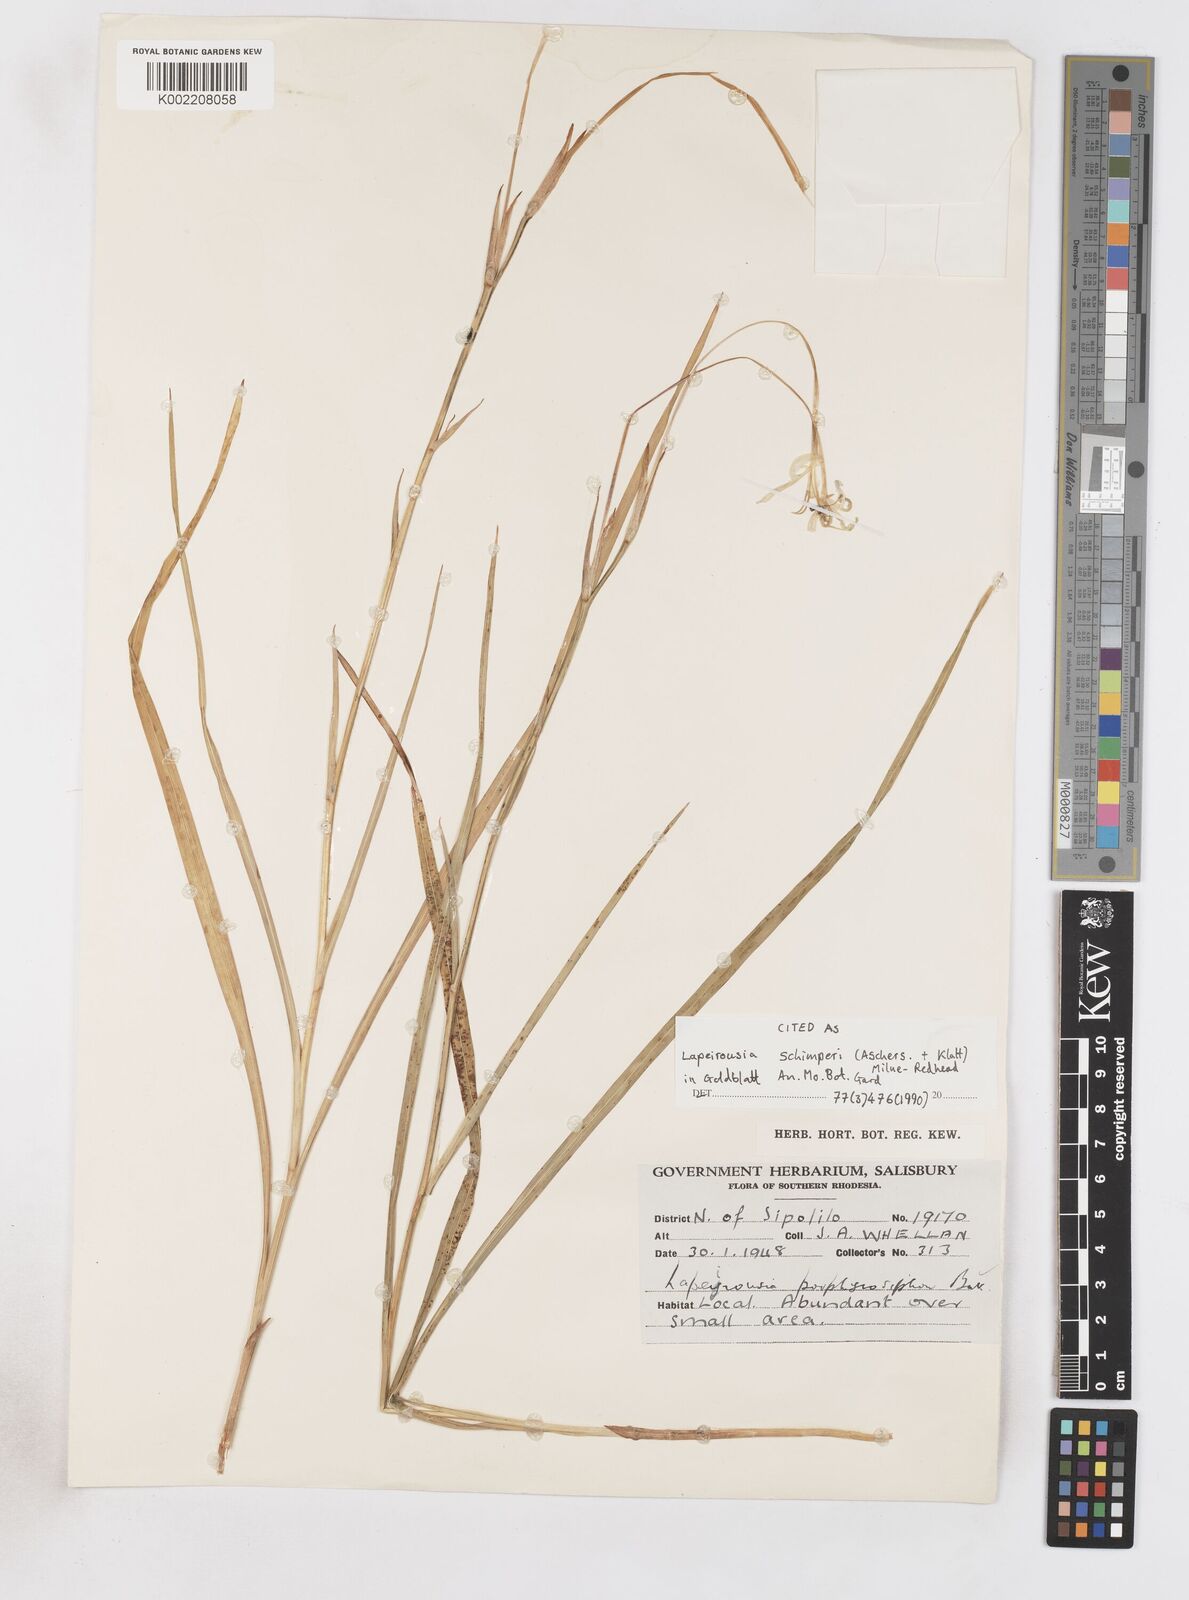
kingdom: Plantae
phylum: Tracheophyta
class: Liliopsida
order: Asparagales
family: Iridaceae
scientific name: Iridaceae
